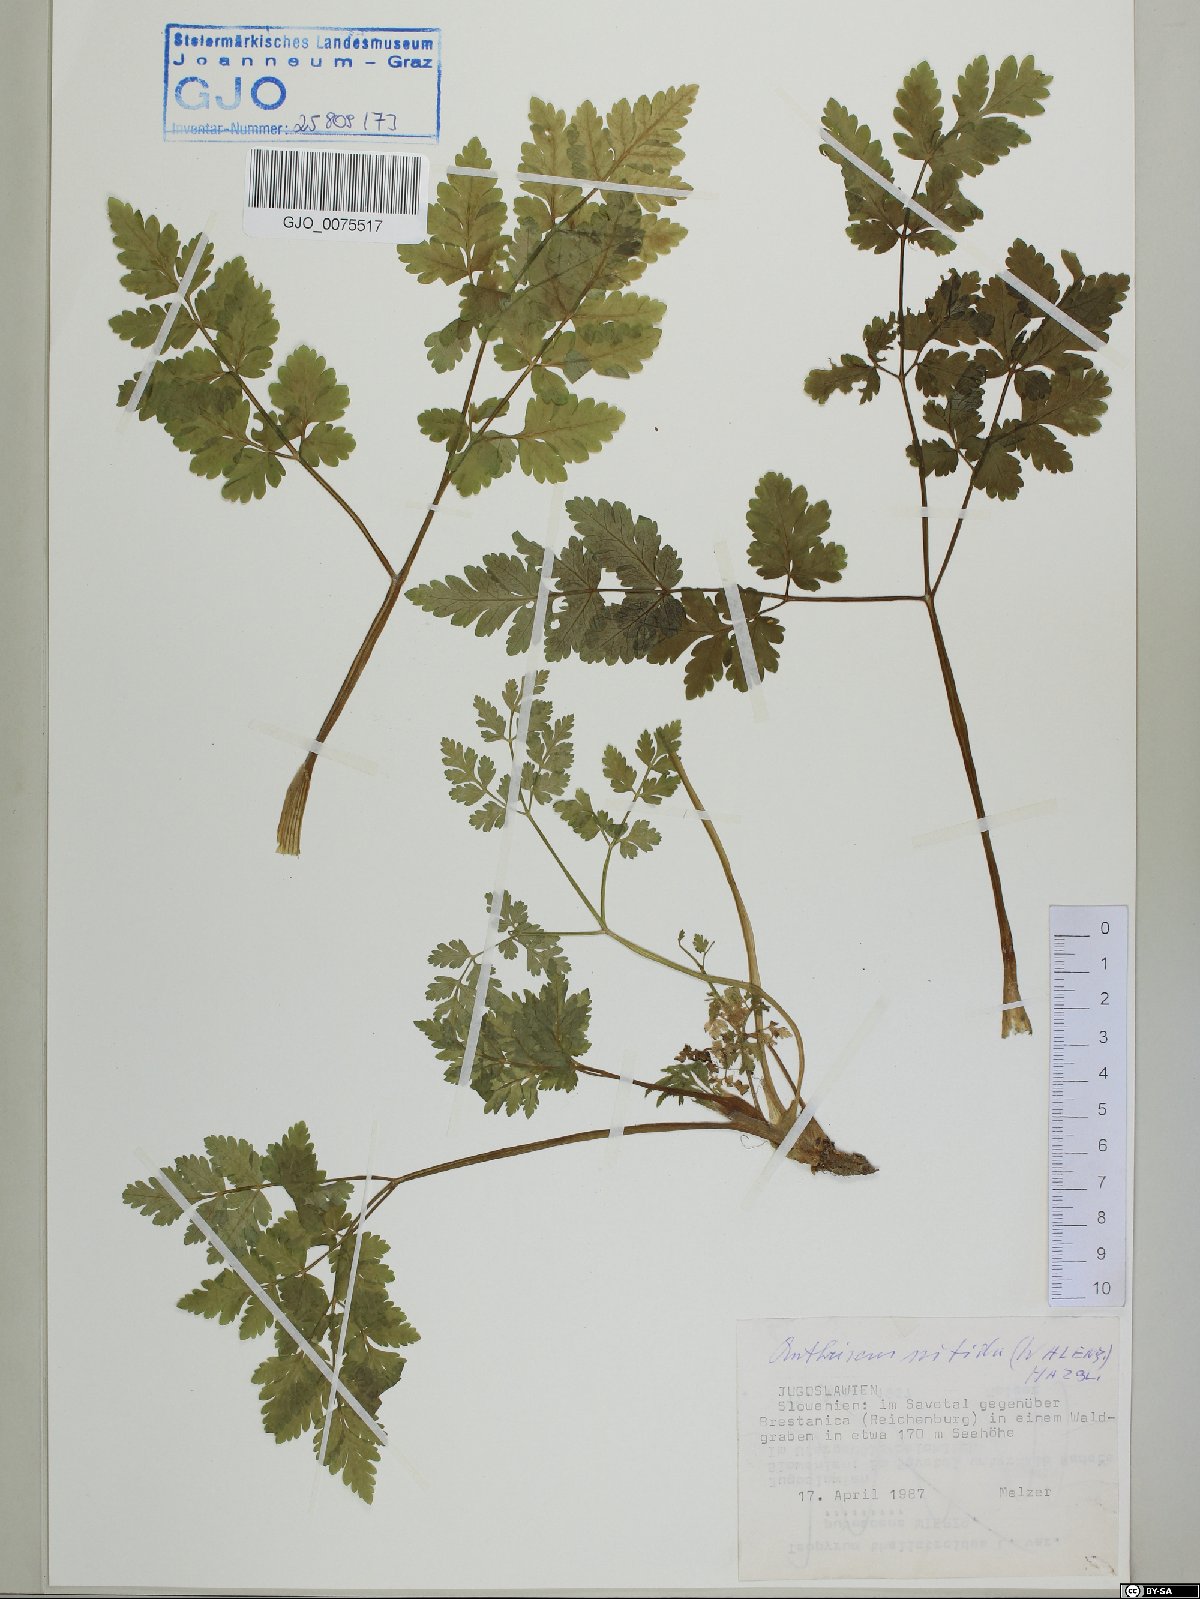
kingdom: Plantae
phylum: Tracheophyta
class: Magnoliopsida
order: Apiales
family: Apiaceae
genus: Anthriscus
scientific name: Anthriscus nitida
